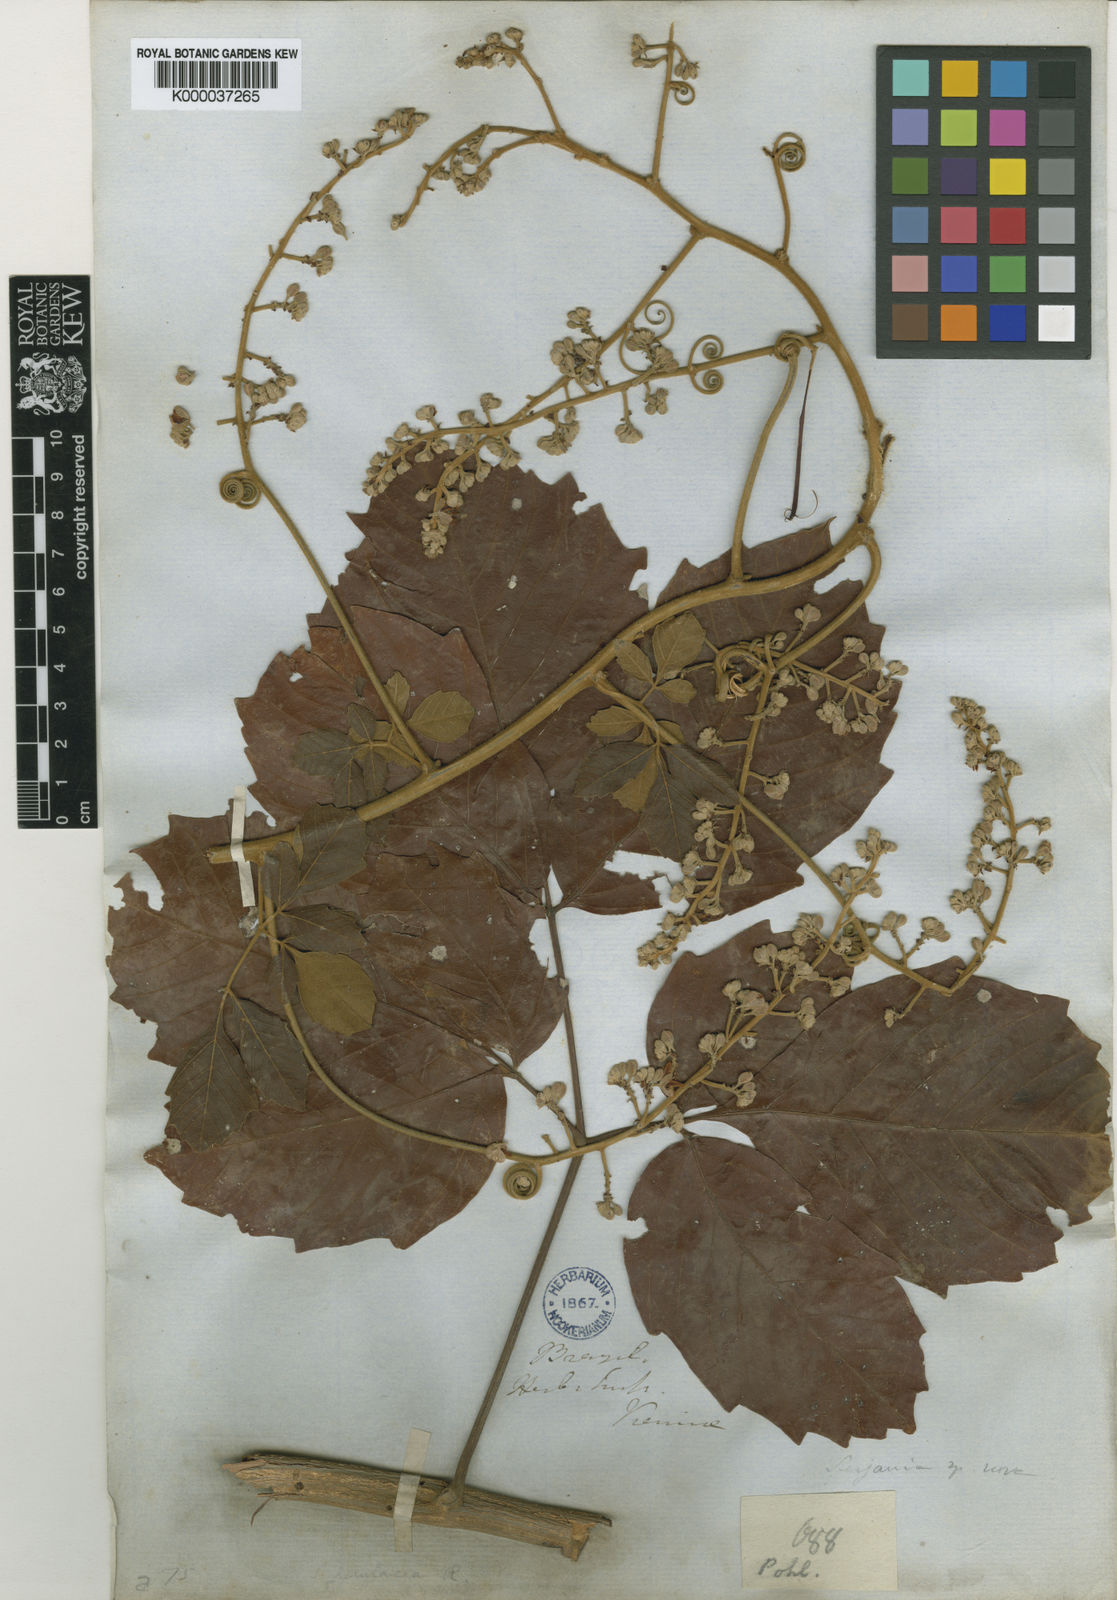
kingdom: Plantae
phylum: Tracheophyta
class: Magnoliopsida
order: Sapindales
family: Sapindaceae
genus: Serjania
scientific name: Serjania perulacea
